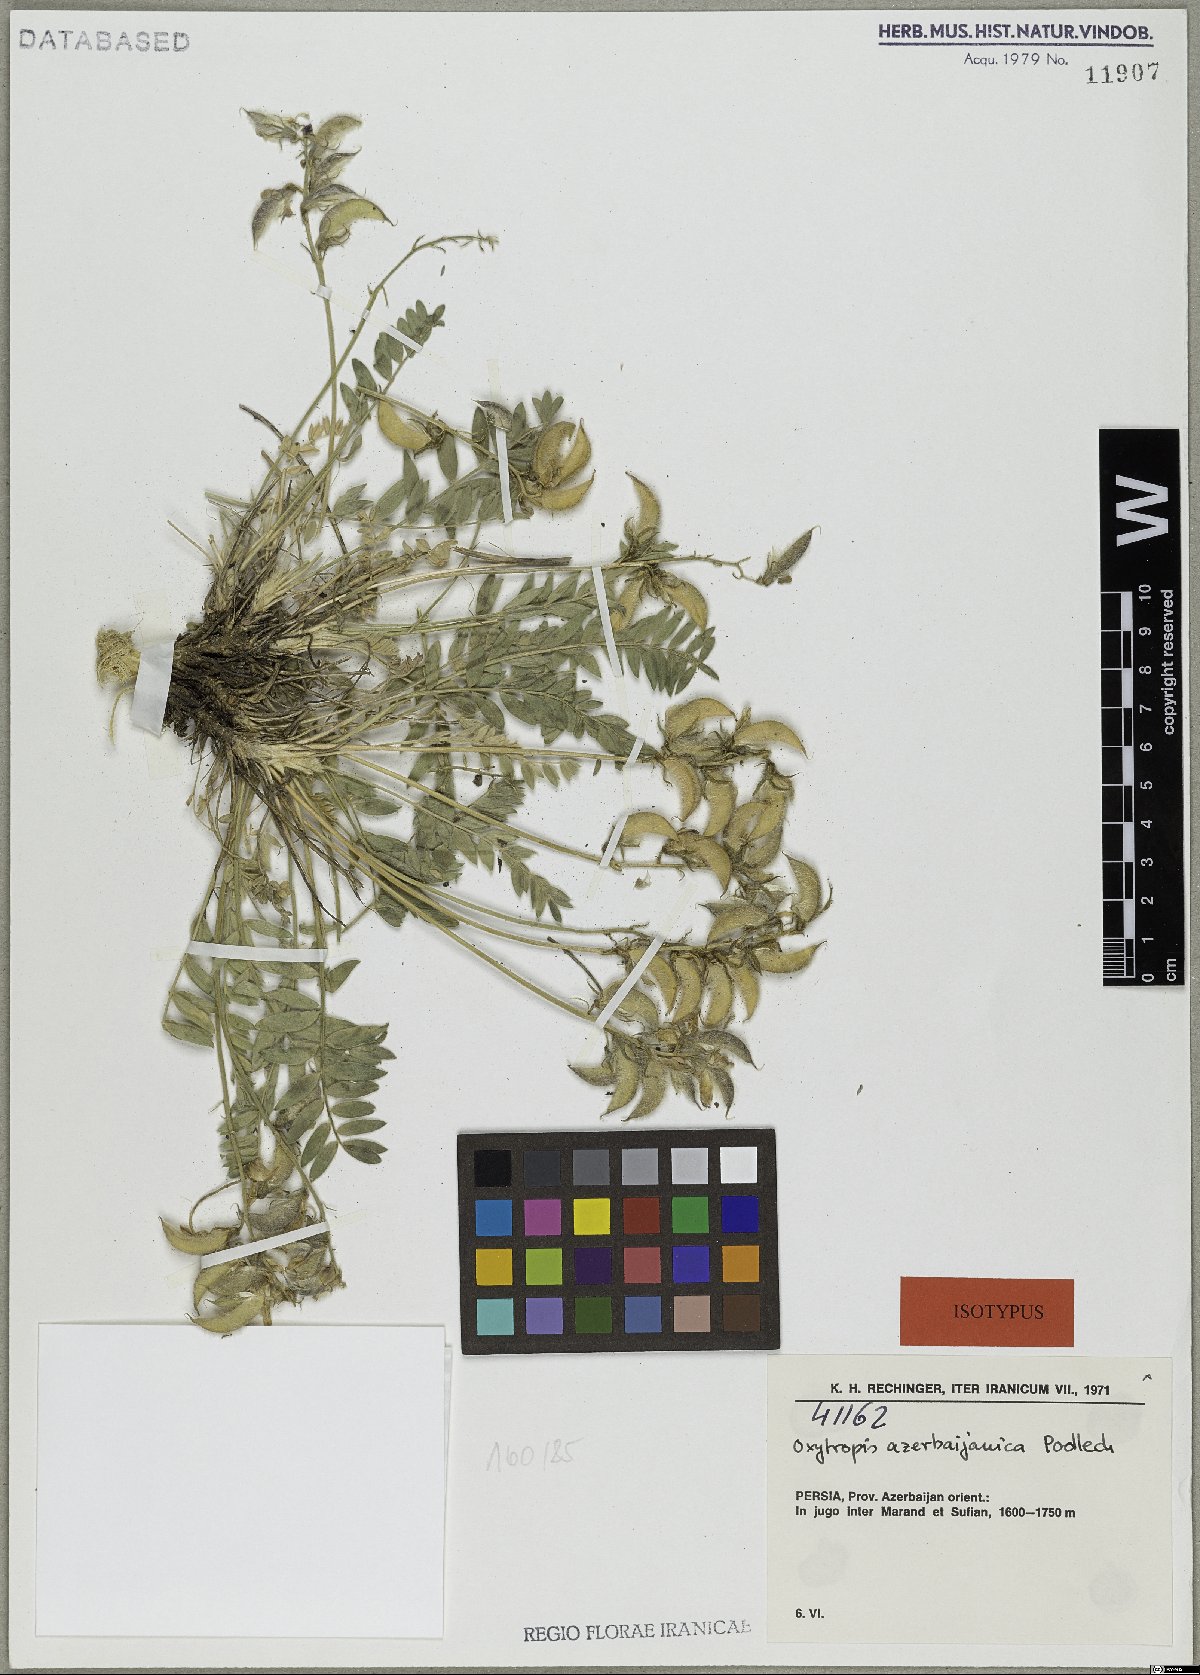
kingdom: Plantae
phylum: Tracheophyta
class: Magnoliopsida
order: Fabales
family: Fabaceae
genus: Oxytropis
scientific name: Oxytropis azerbaijanica
